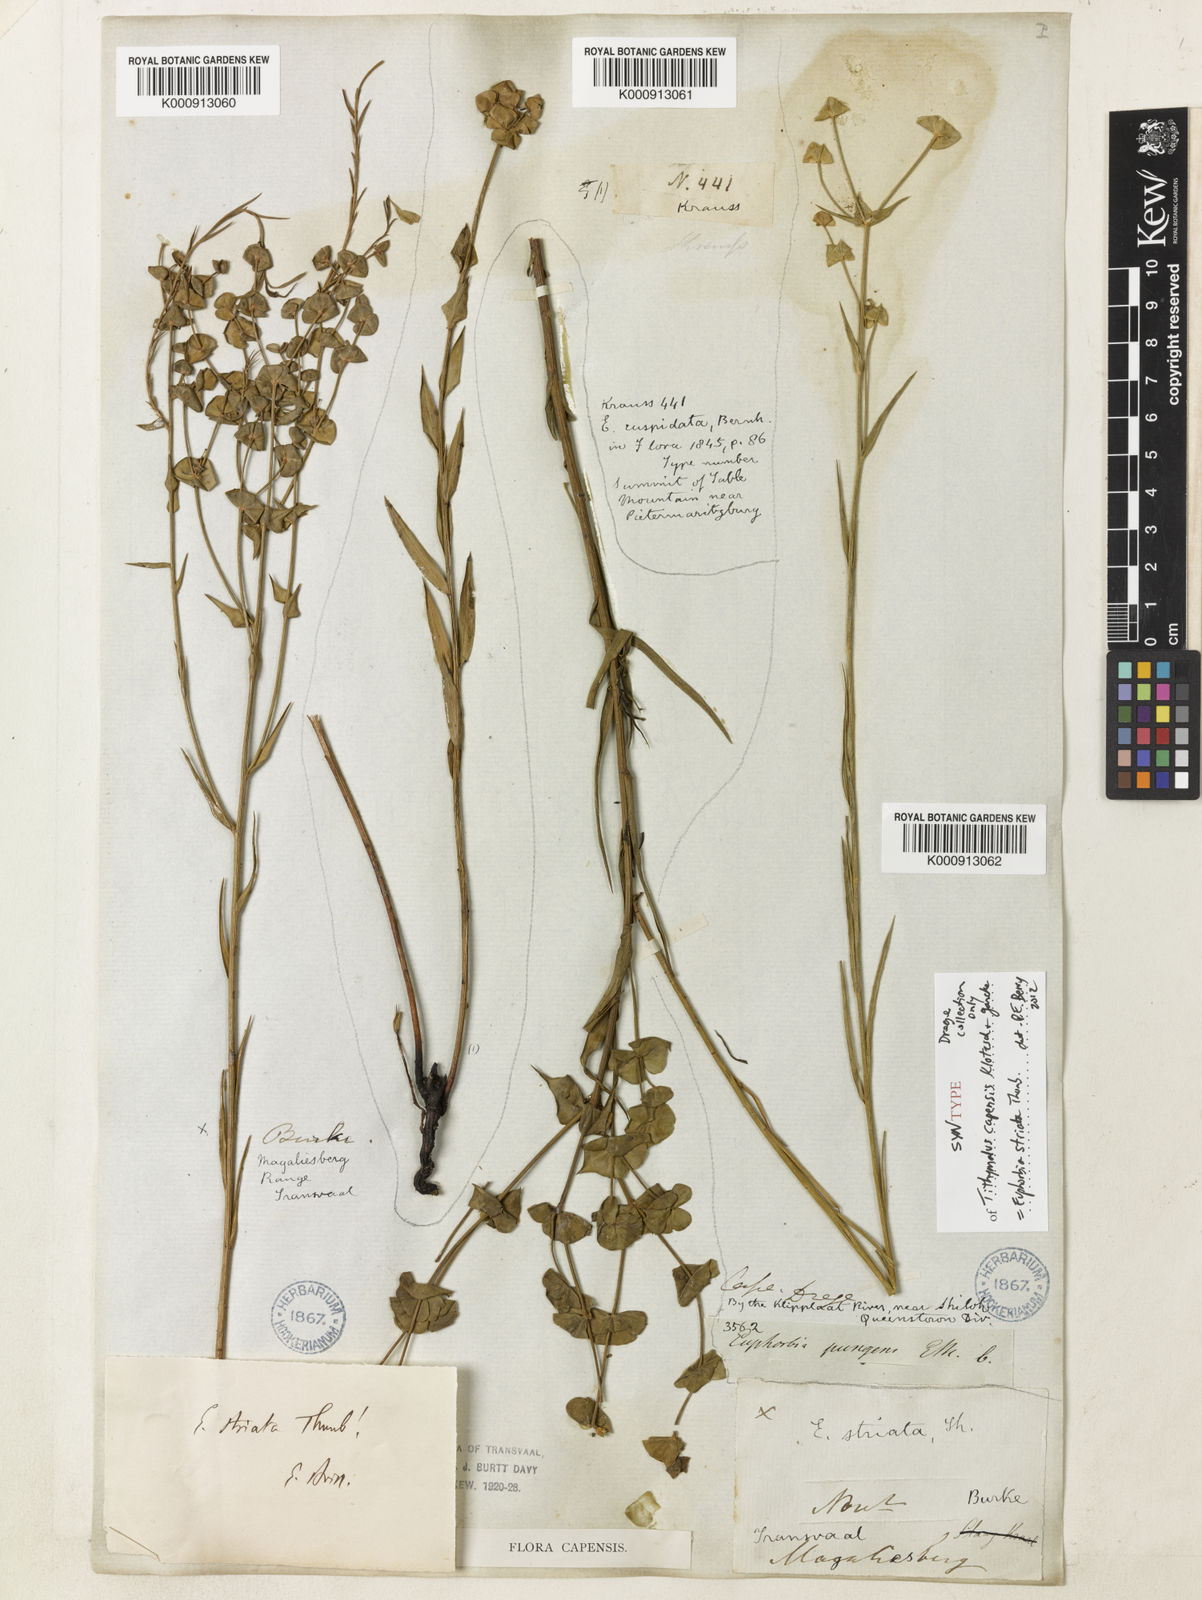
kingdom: Plantae
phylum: Tracheophyta
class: Magnoliopsida
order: Malpighiales
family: Euphorbiaceae
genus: Euphorbia
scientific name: Euphorbia striata
